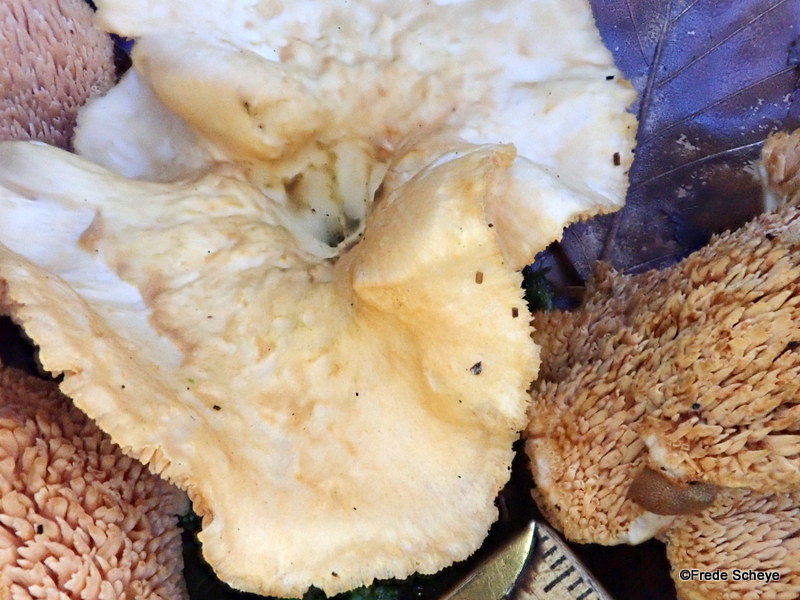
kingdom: Fungi
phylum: Basidiomycota
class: Agaricomycetes
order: Cantharellales
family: Hydnaceae
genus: Hydnum
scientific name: Hydnum
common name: pigsvamp
